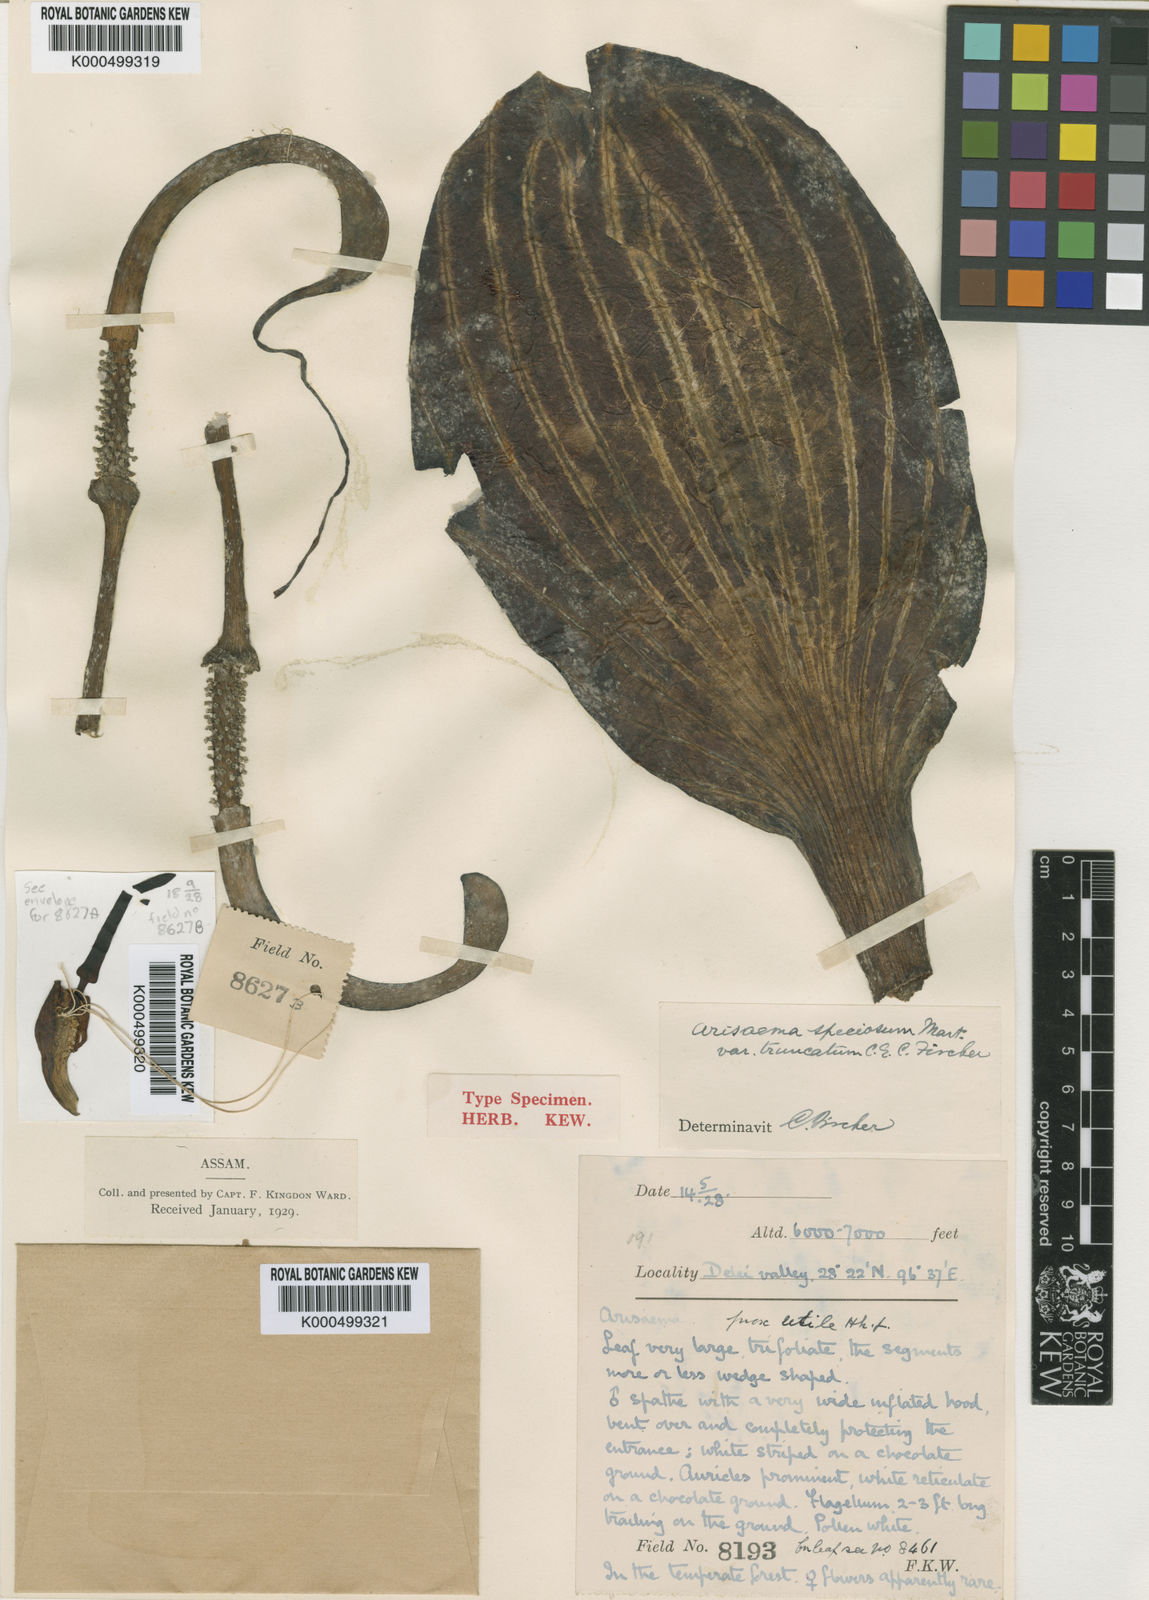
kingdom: Plantae
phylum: Tracheophyta
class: Liliopsida
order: Alismatales
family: Araceae
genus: Arisaema
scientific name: Arisaema
